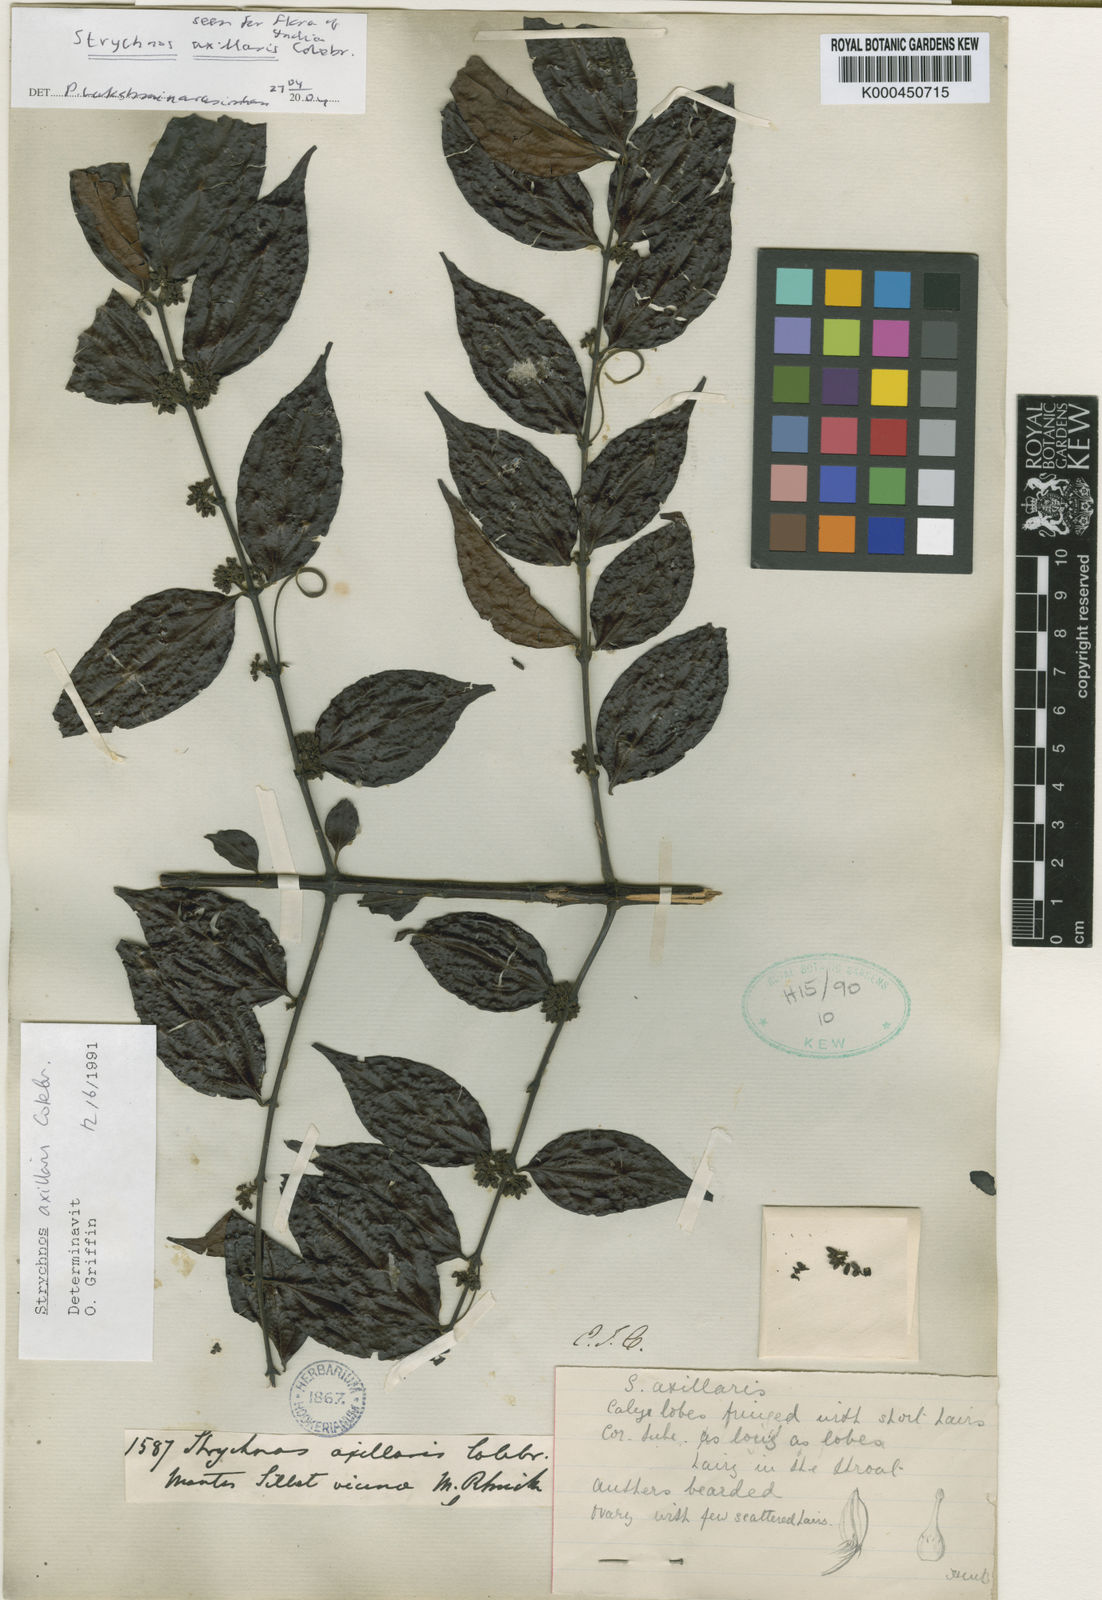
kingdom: Plantae
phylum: Tracheophyta
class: Magnoliopsida
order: Gentianales
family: Loganiaceae
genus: Strychnos
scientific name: Strychnos axillaris
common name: Strychninebush
